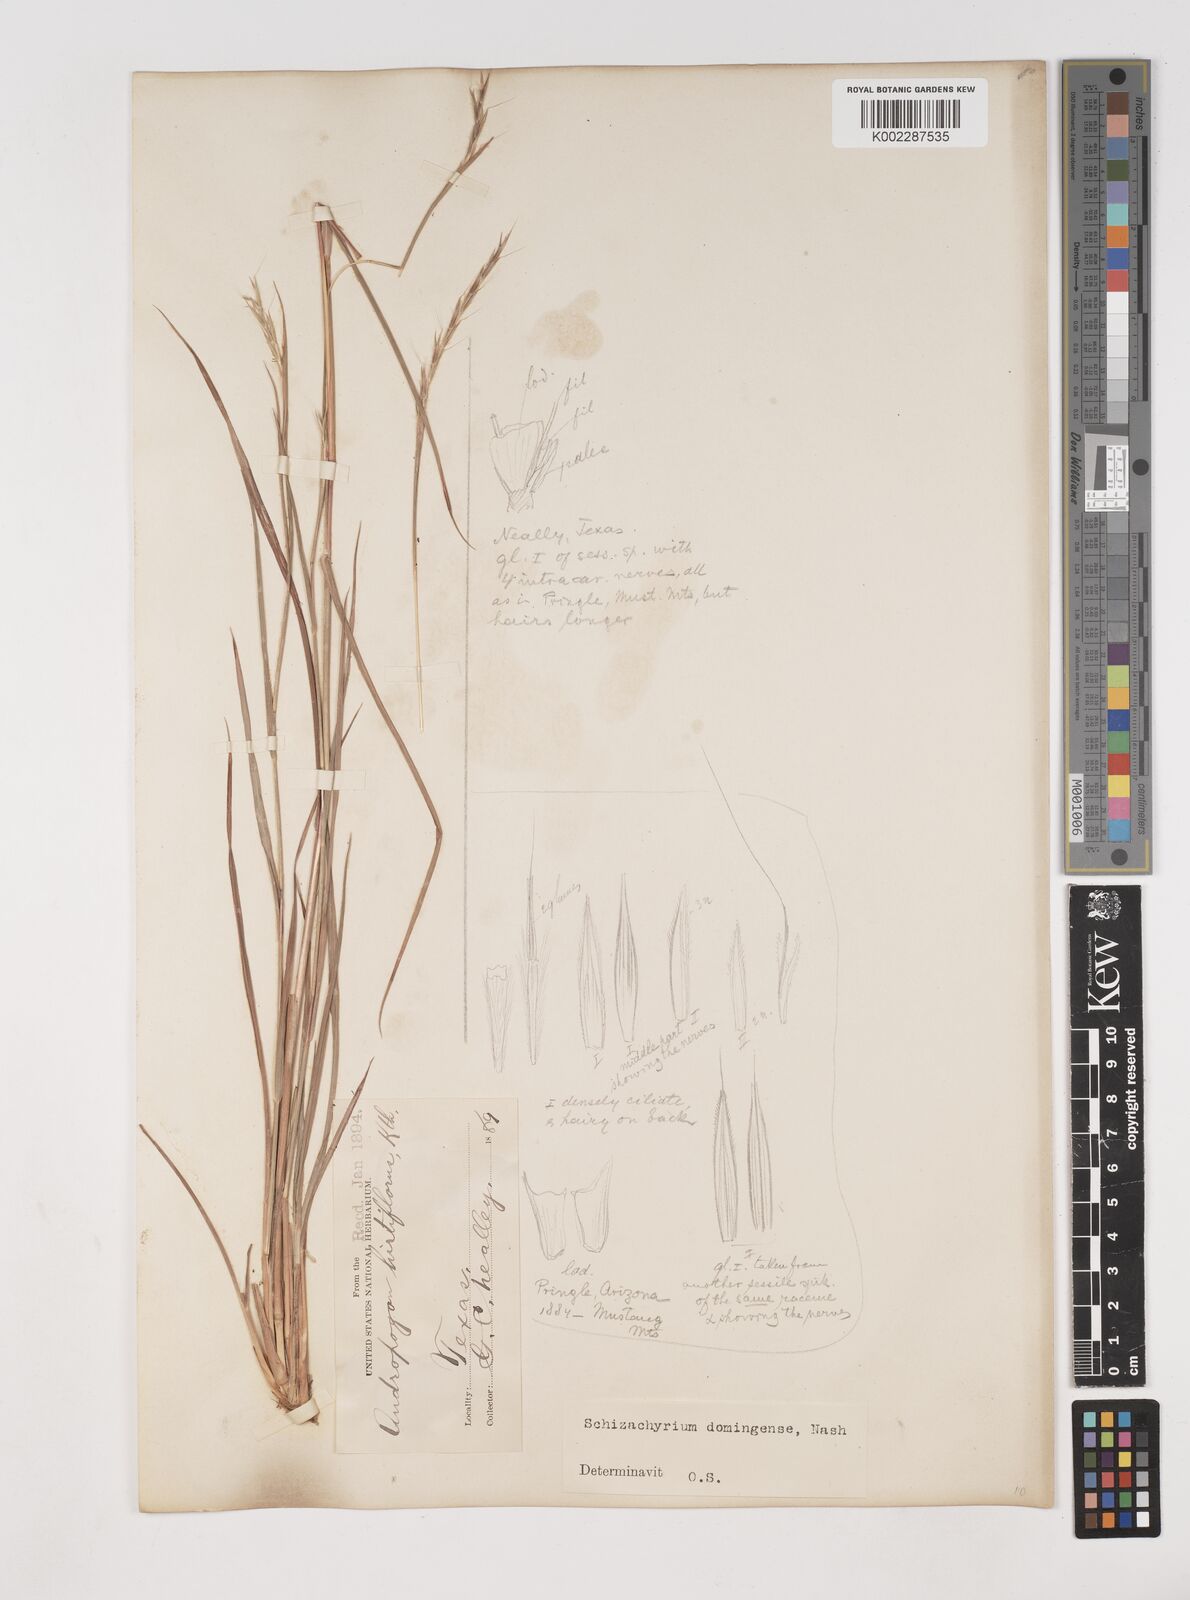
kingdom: Plantae
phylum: Tracheophyta
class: Liliopsida
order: Poales
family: Poaceae
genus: Schizachyrium
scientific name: Schizachyrium sanguineum
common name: Crimson bluestem
